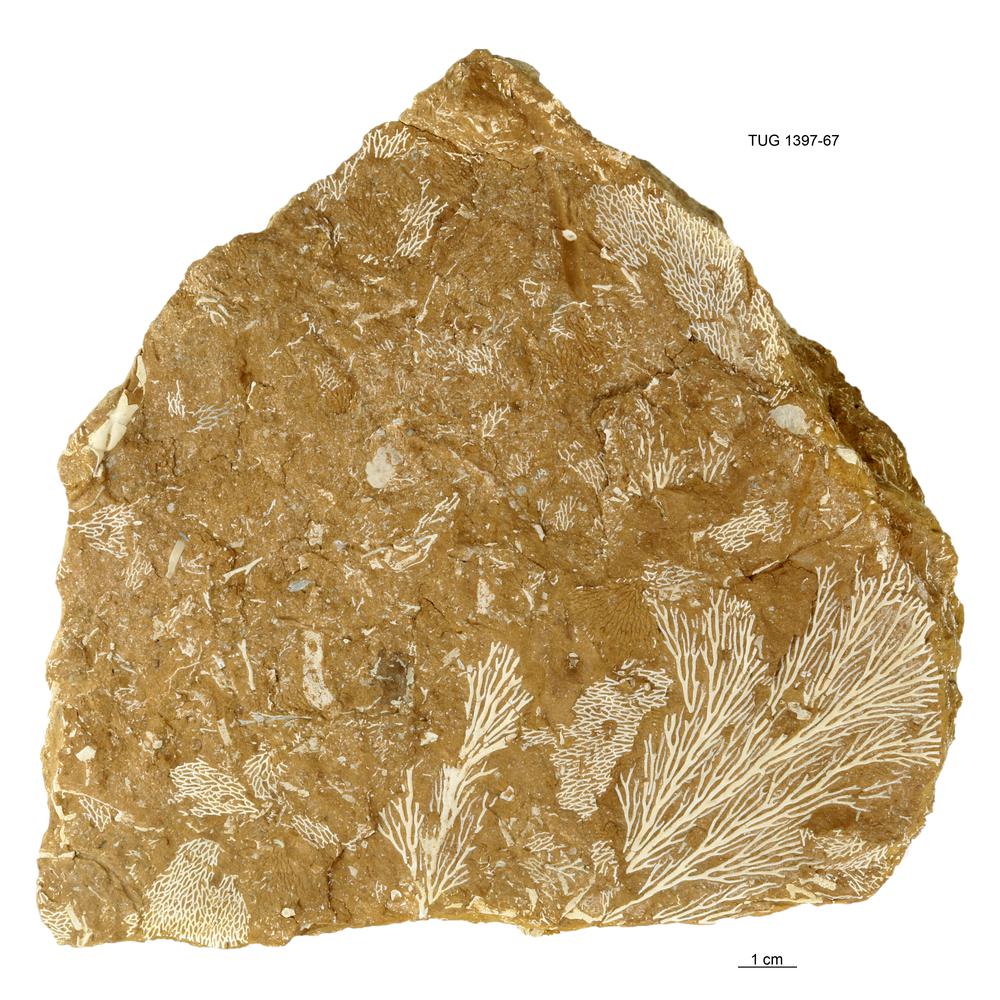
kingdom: Animalia
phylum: Bryozoa
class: Stenolaemata
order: Fenestrida
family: Phylloporinidae
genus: Pseudohornera
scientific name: Pseudohornera bifida
